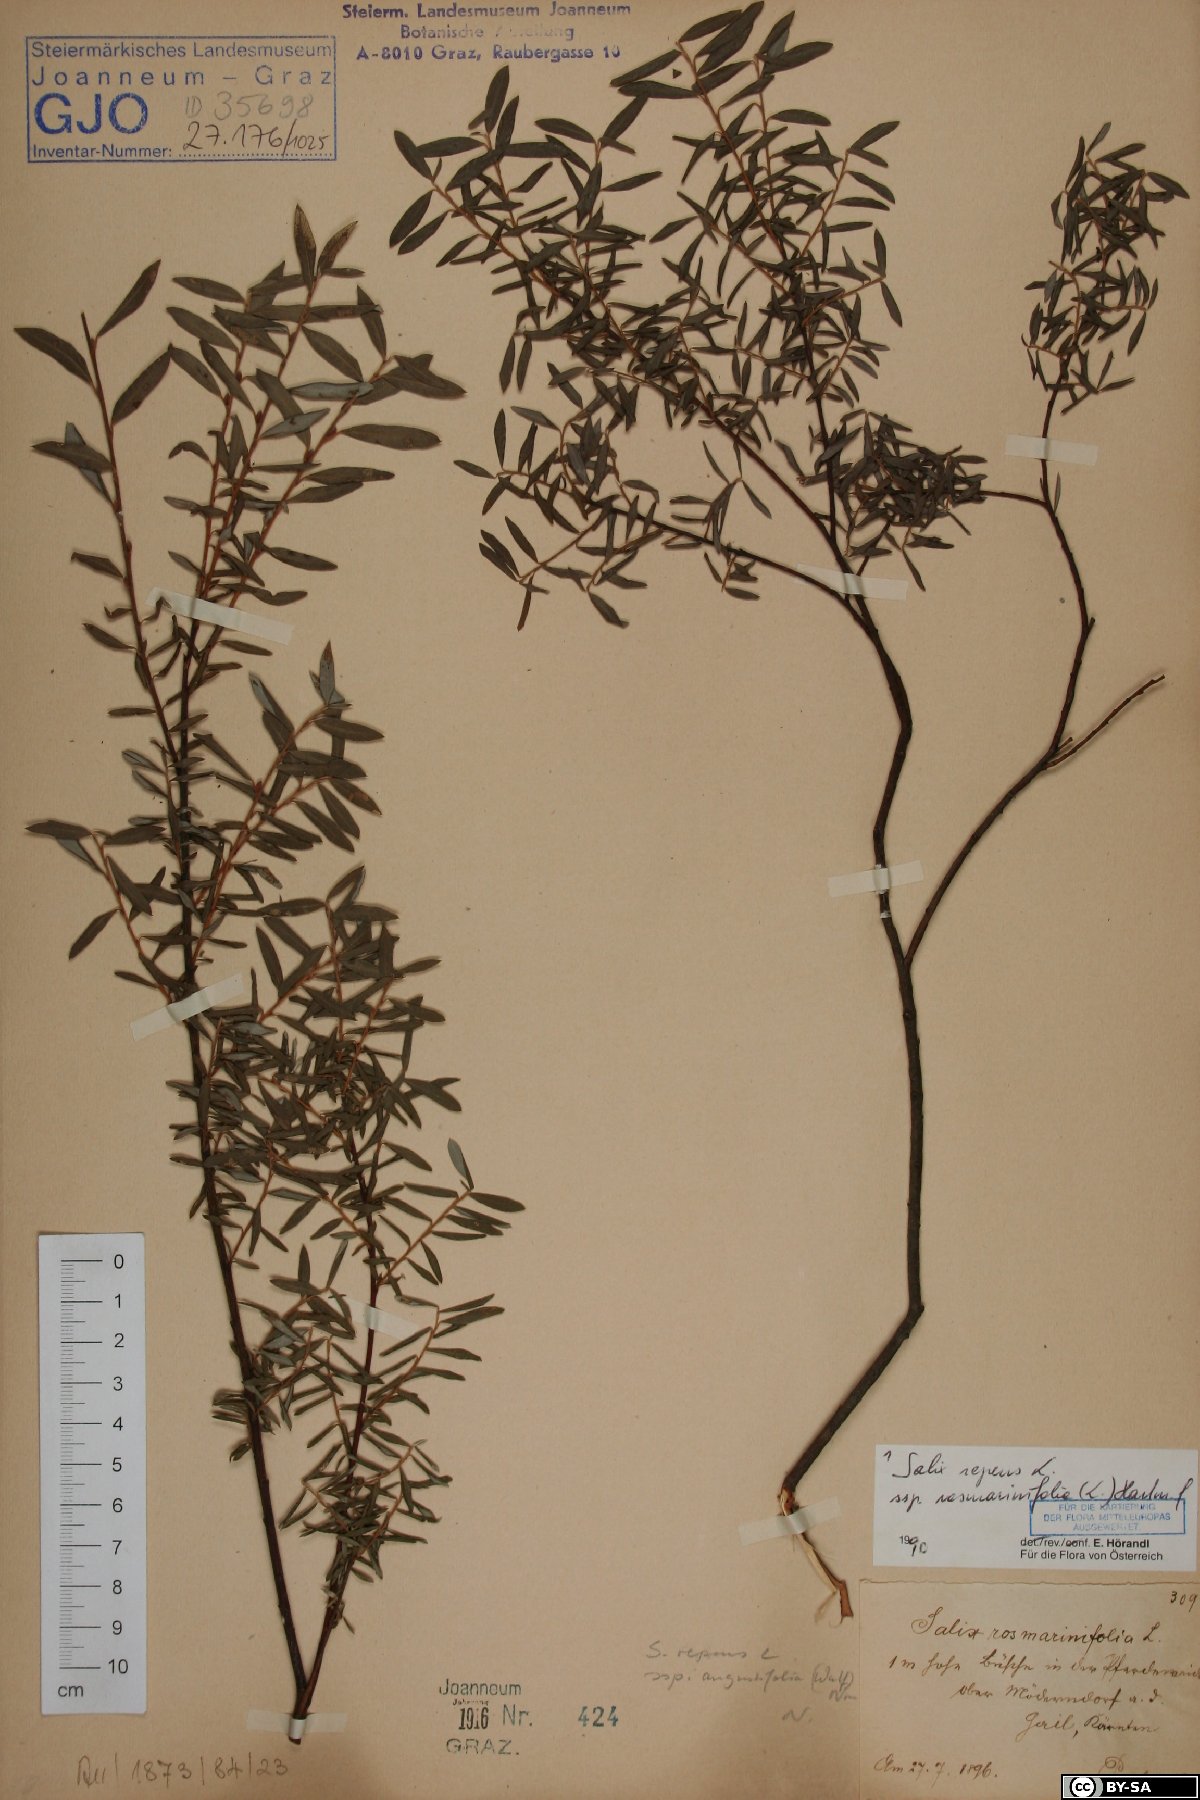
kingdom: Plantae
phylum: Tracheophyta
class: Magnoliopsida
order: Malpighiales
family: Salicaceae
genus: Salix
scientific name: Salix repens
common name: Creeping willow
